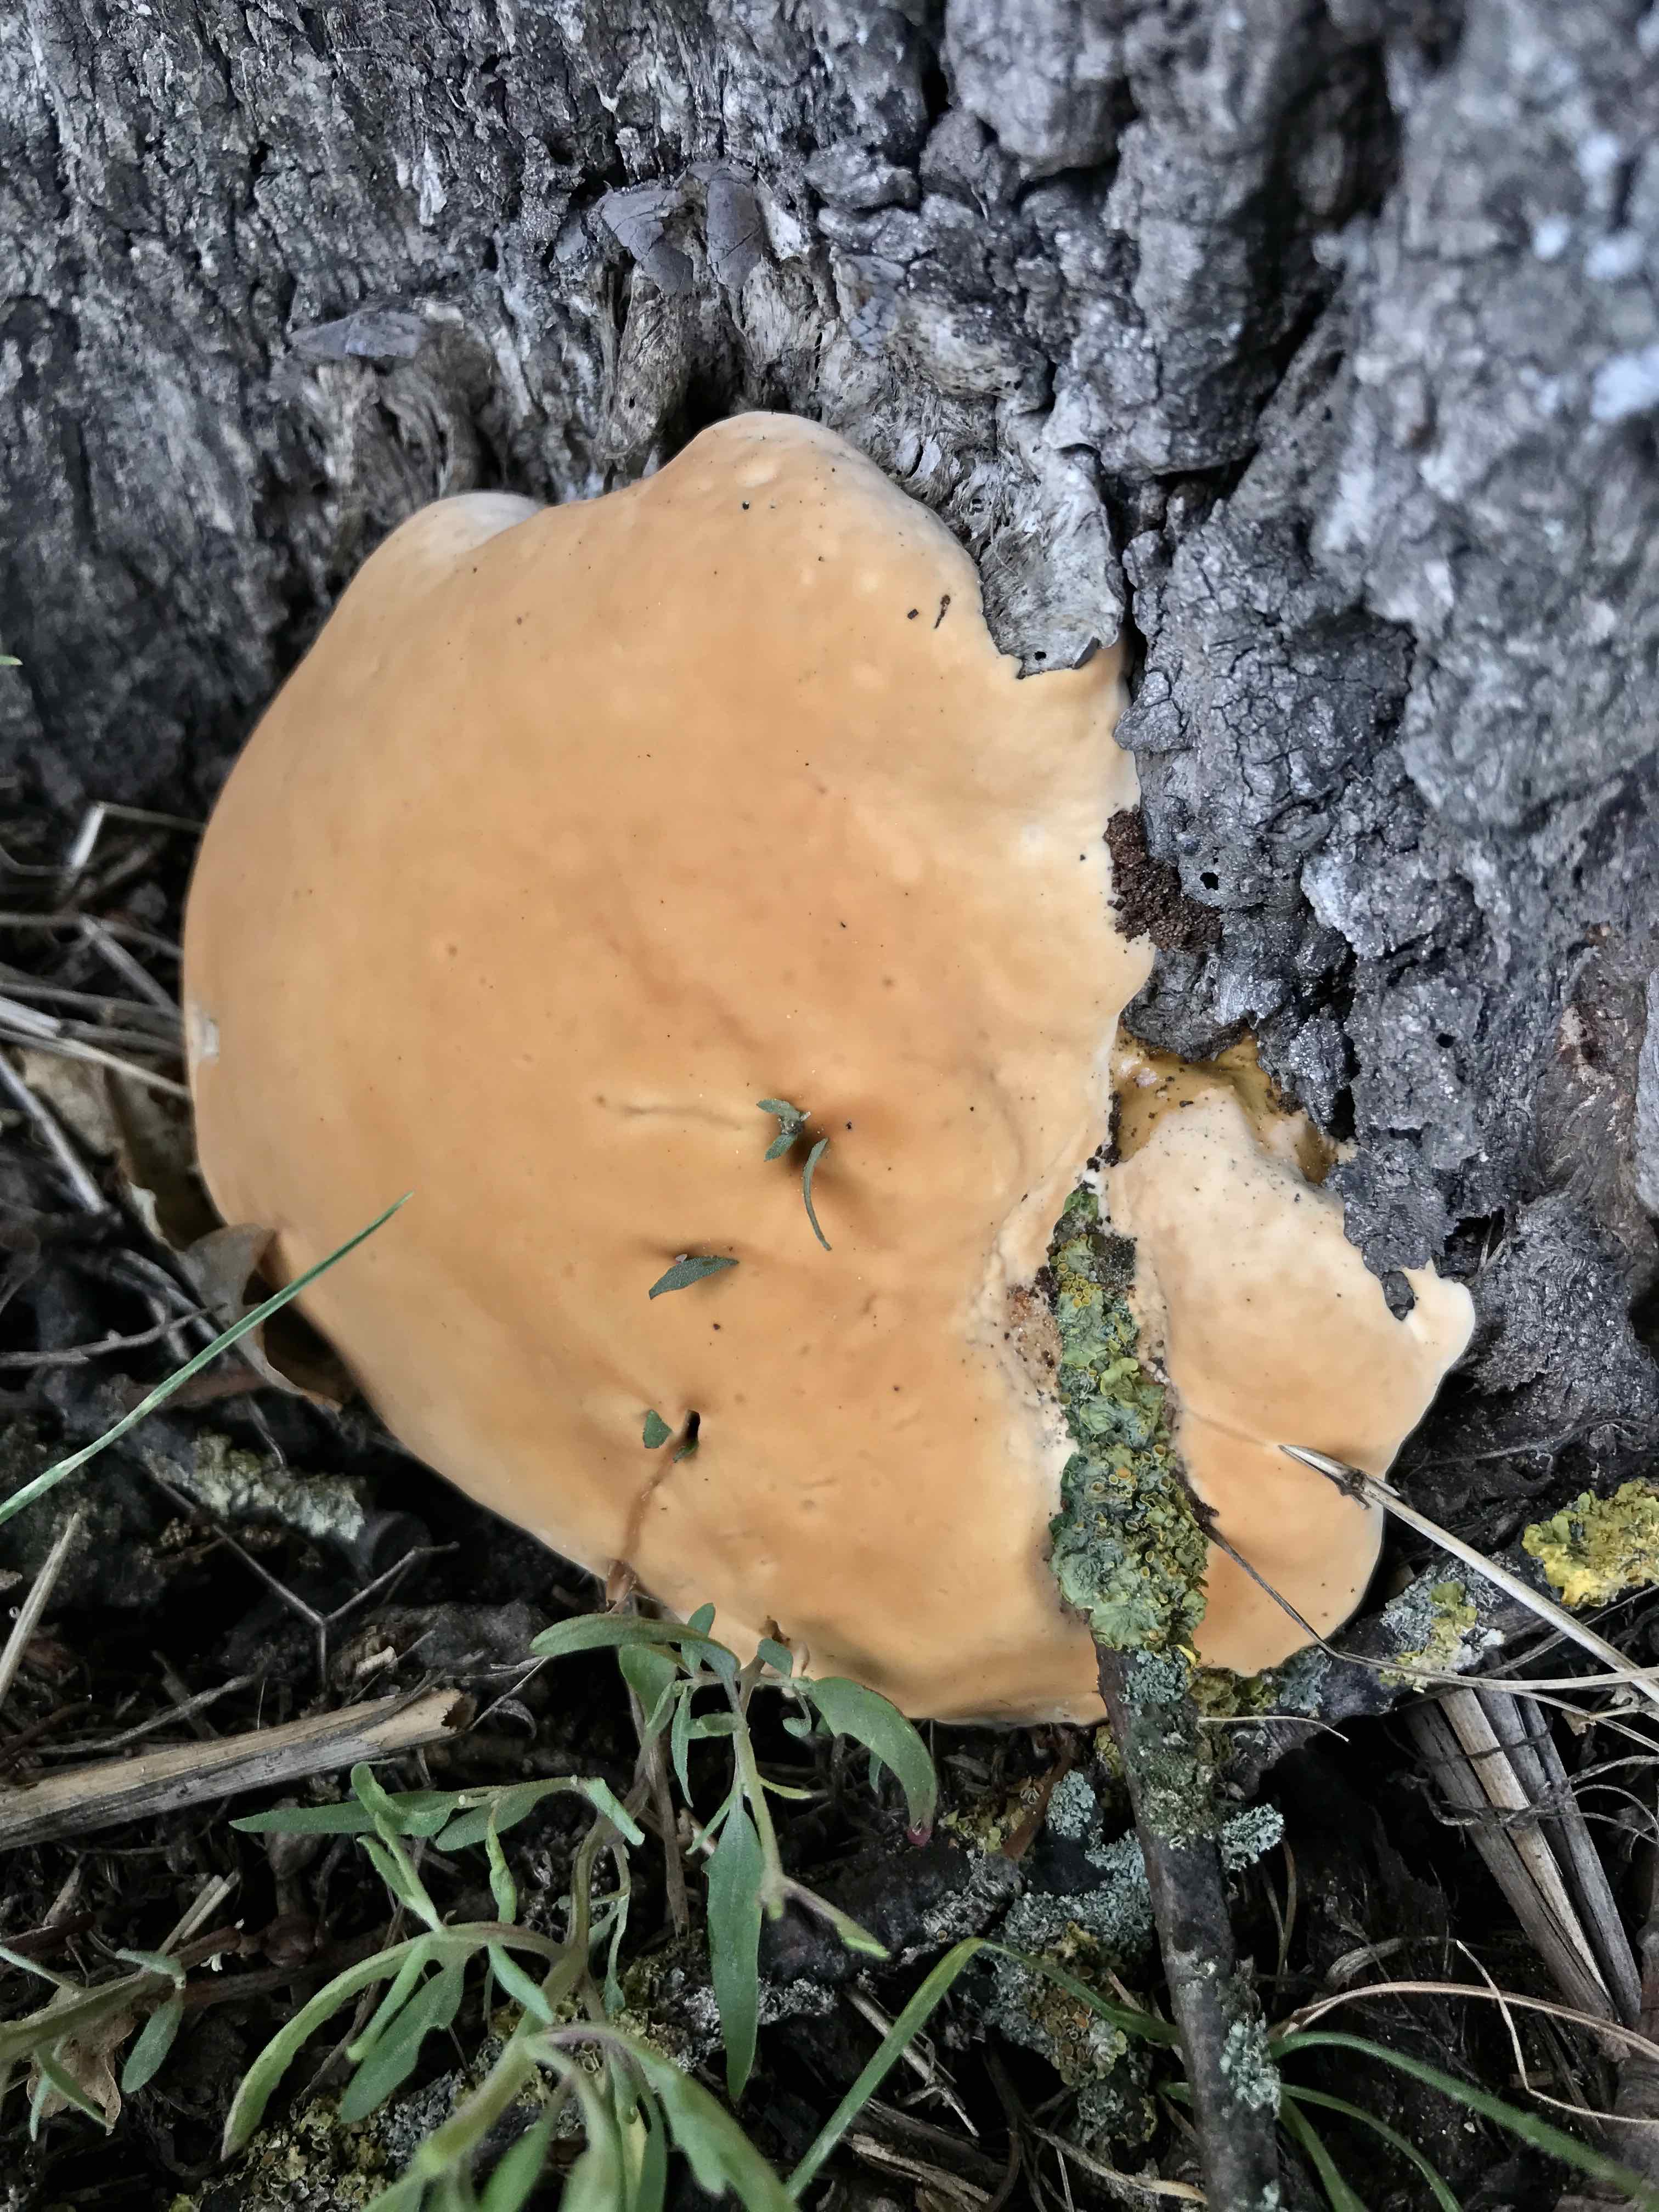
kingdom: Fungi
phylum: Basidiomycota
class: Agaricomycetes
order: Polyporales
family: Polyporaceae
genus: Ganoderma
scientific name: Ganoderma resinaceum
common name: gyldenbrun lakporesvamp
